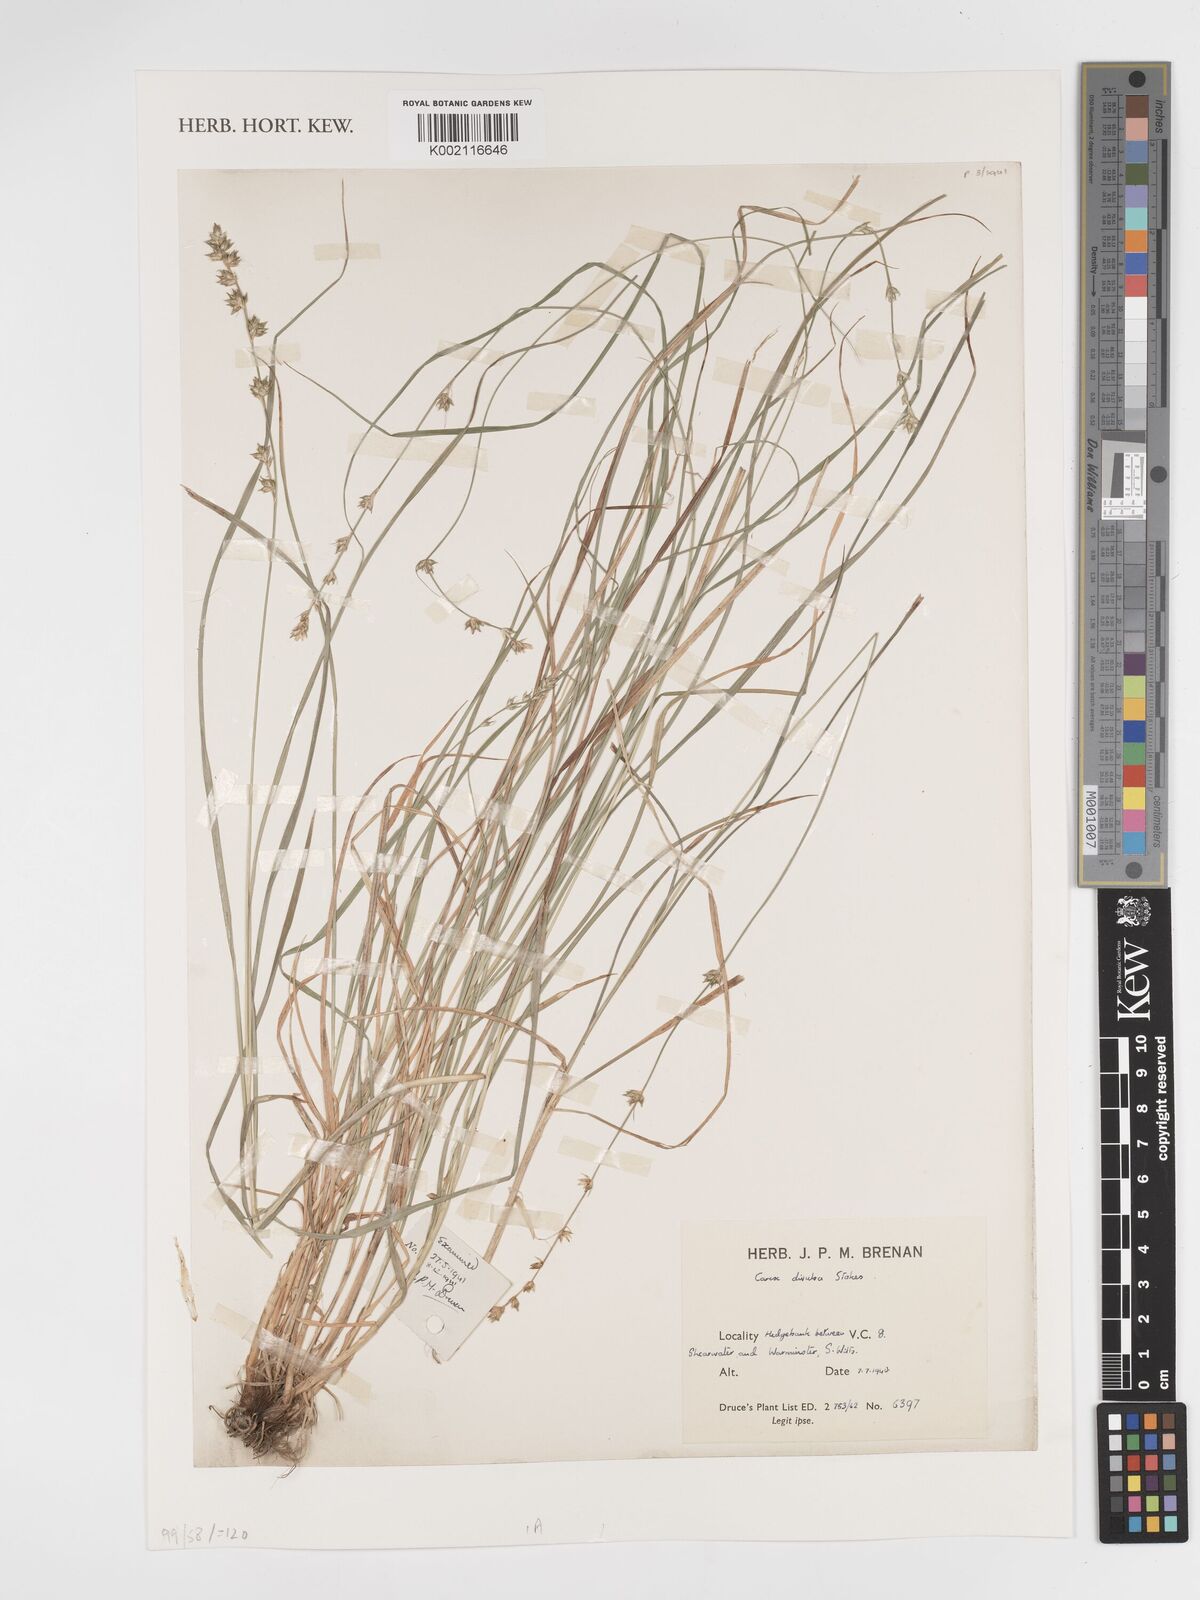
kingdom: Plantae
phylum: Tracheophyta
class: Liliopsida
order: Poales
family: Cyperaceae
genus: Carex
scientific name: Carex divulsa
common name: Grassland sedge
